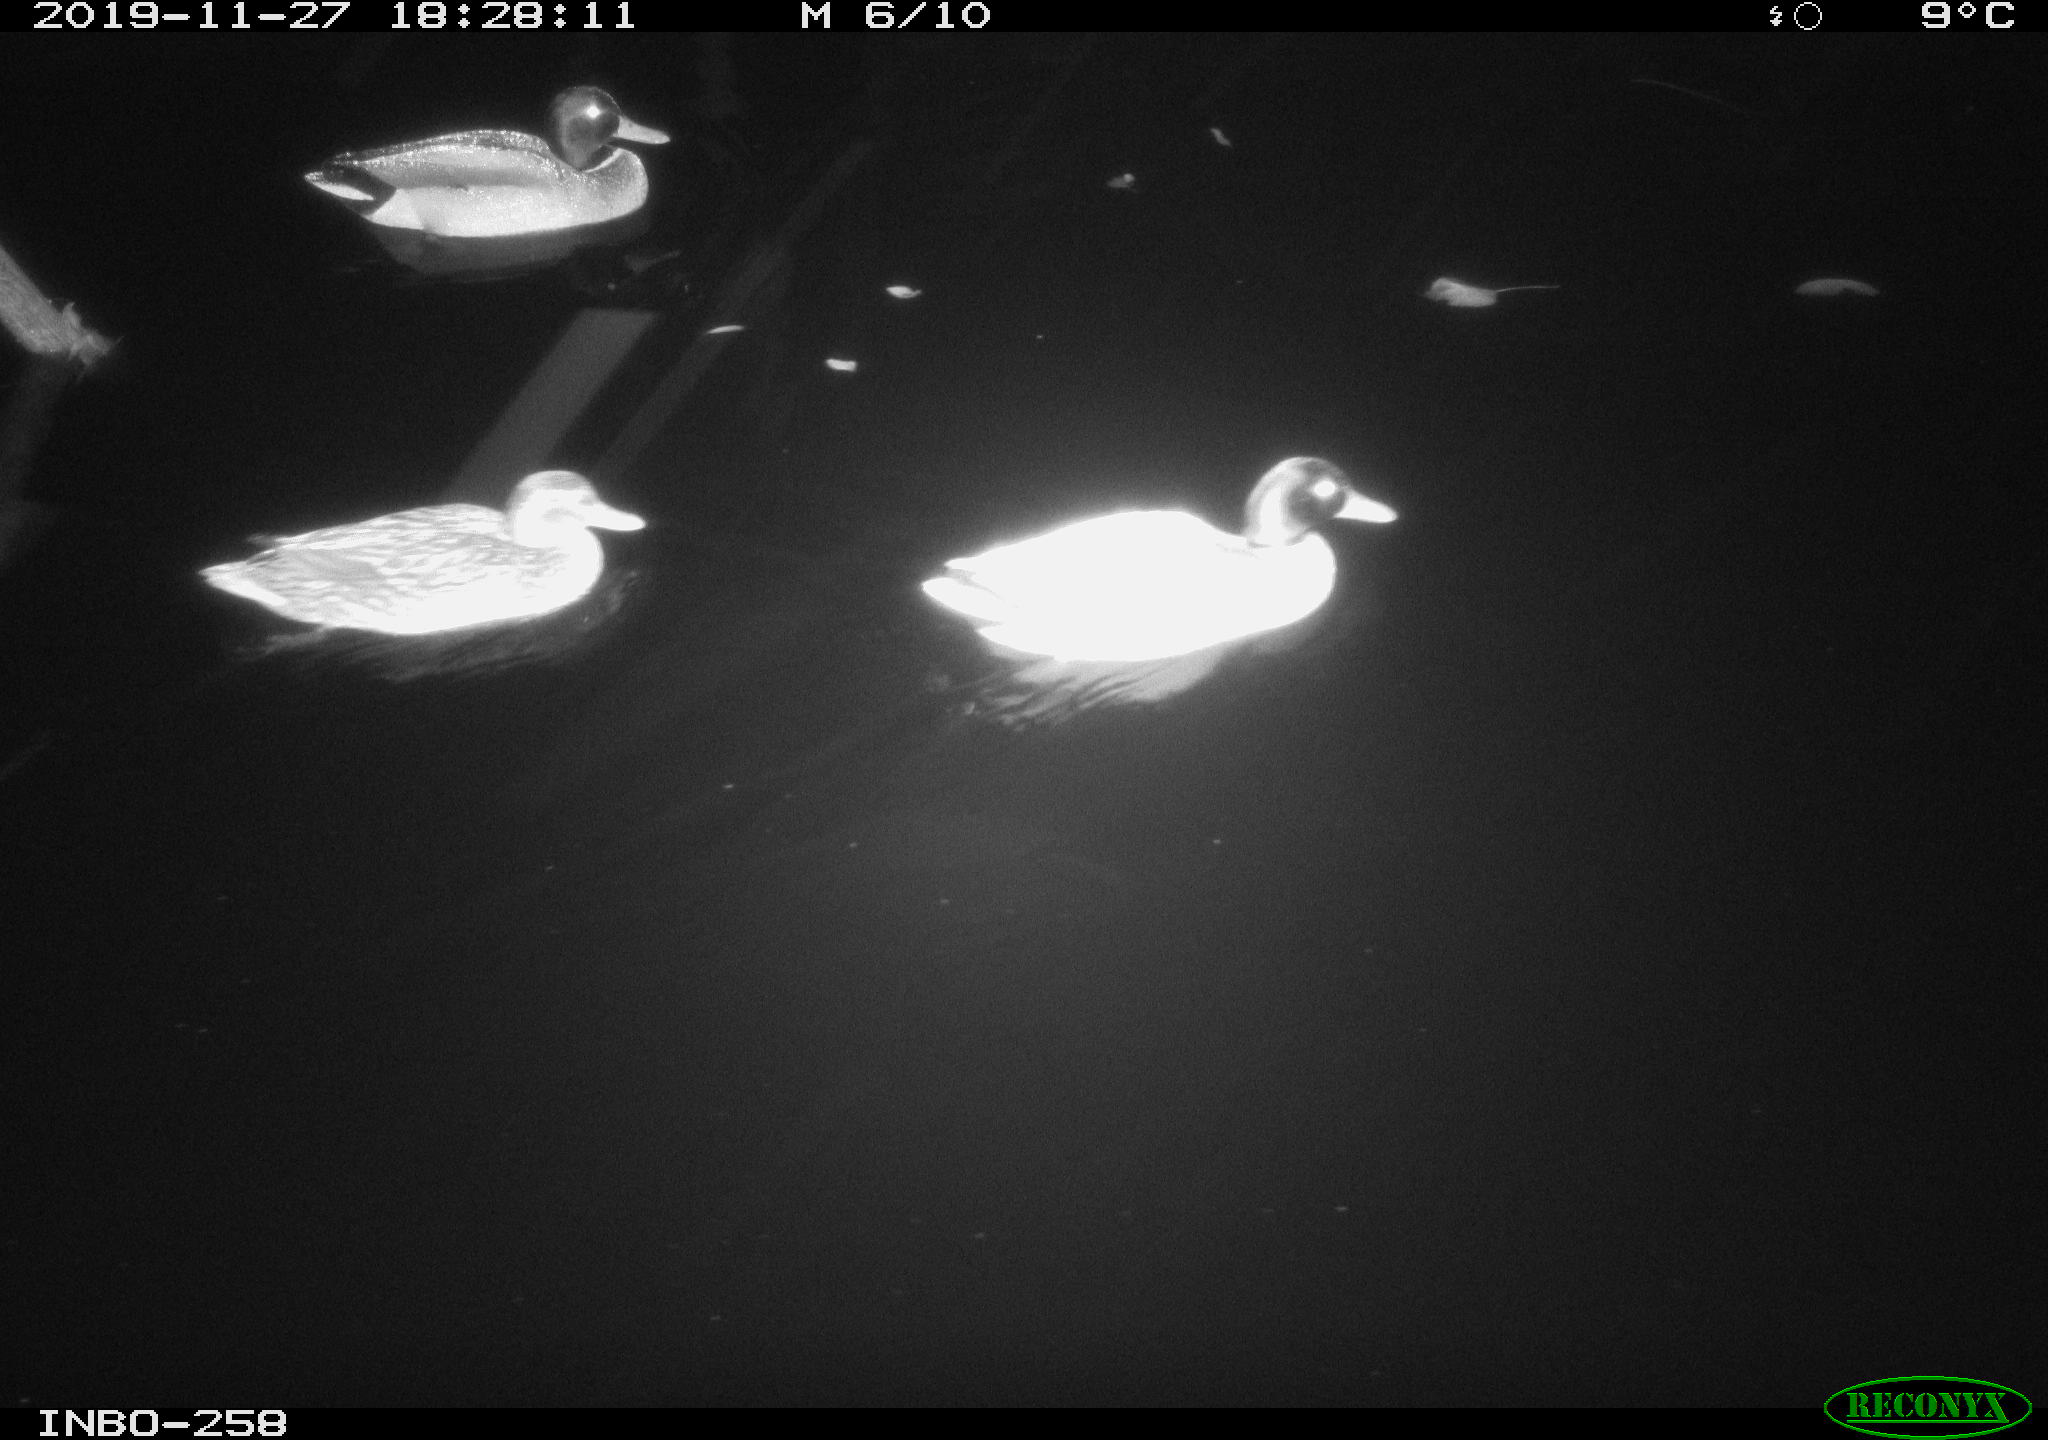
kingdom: Animalia
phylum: Chordata
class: Aves
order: Anseriformes
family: Anatidae
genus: Anas
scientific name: Anas platyrhynchos
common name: Mallard
